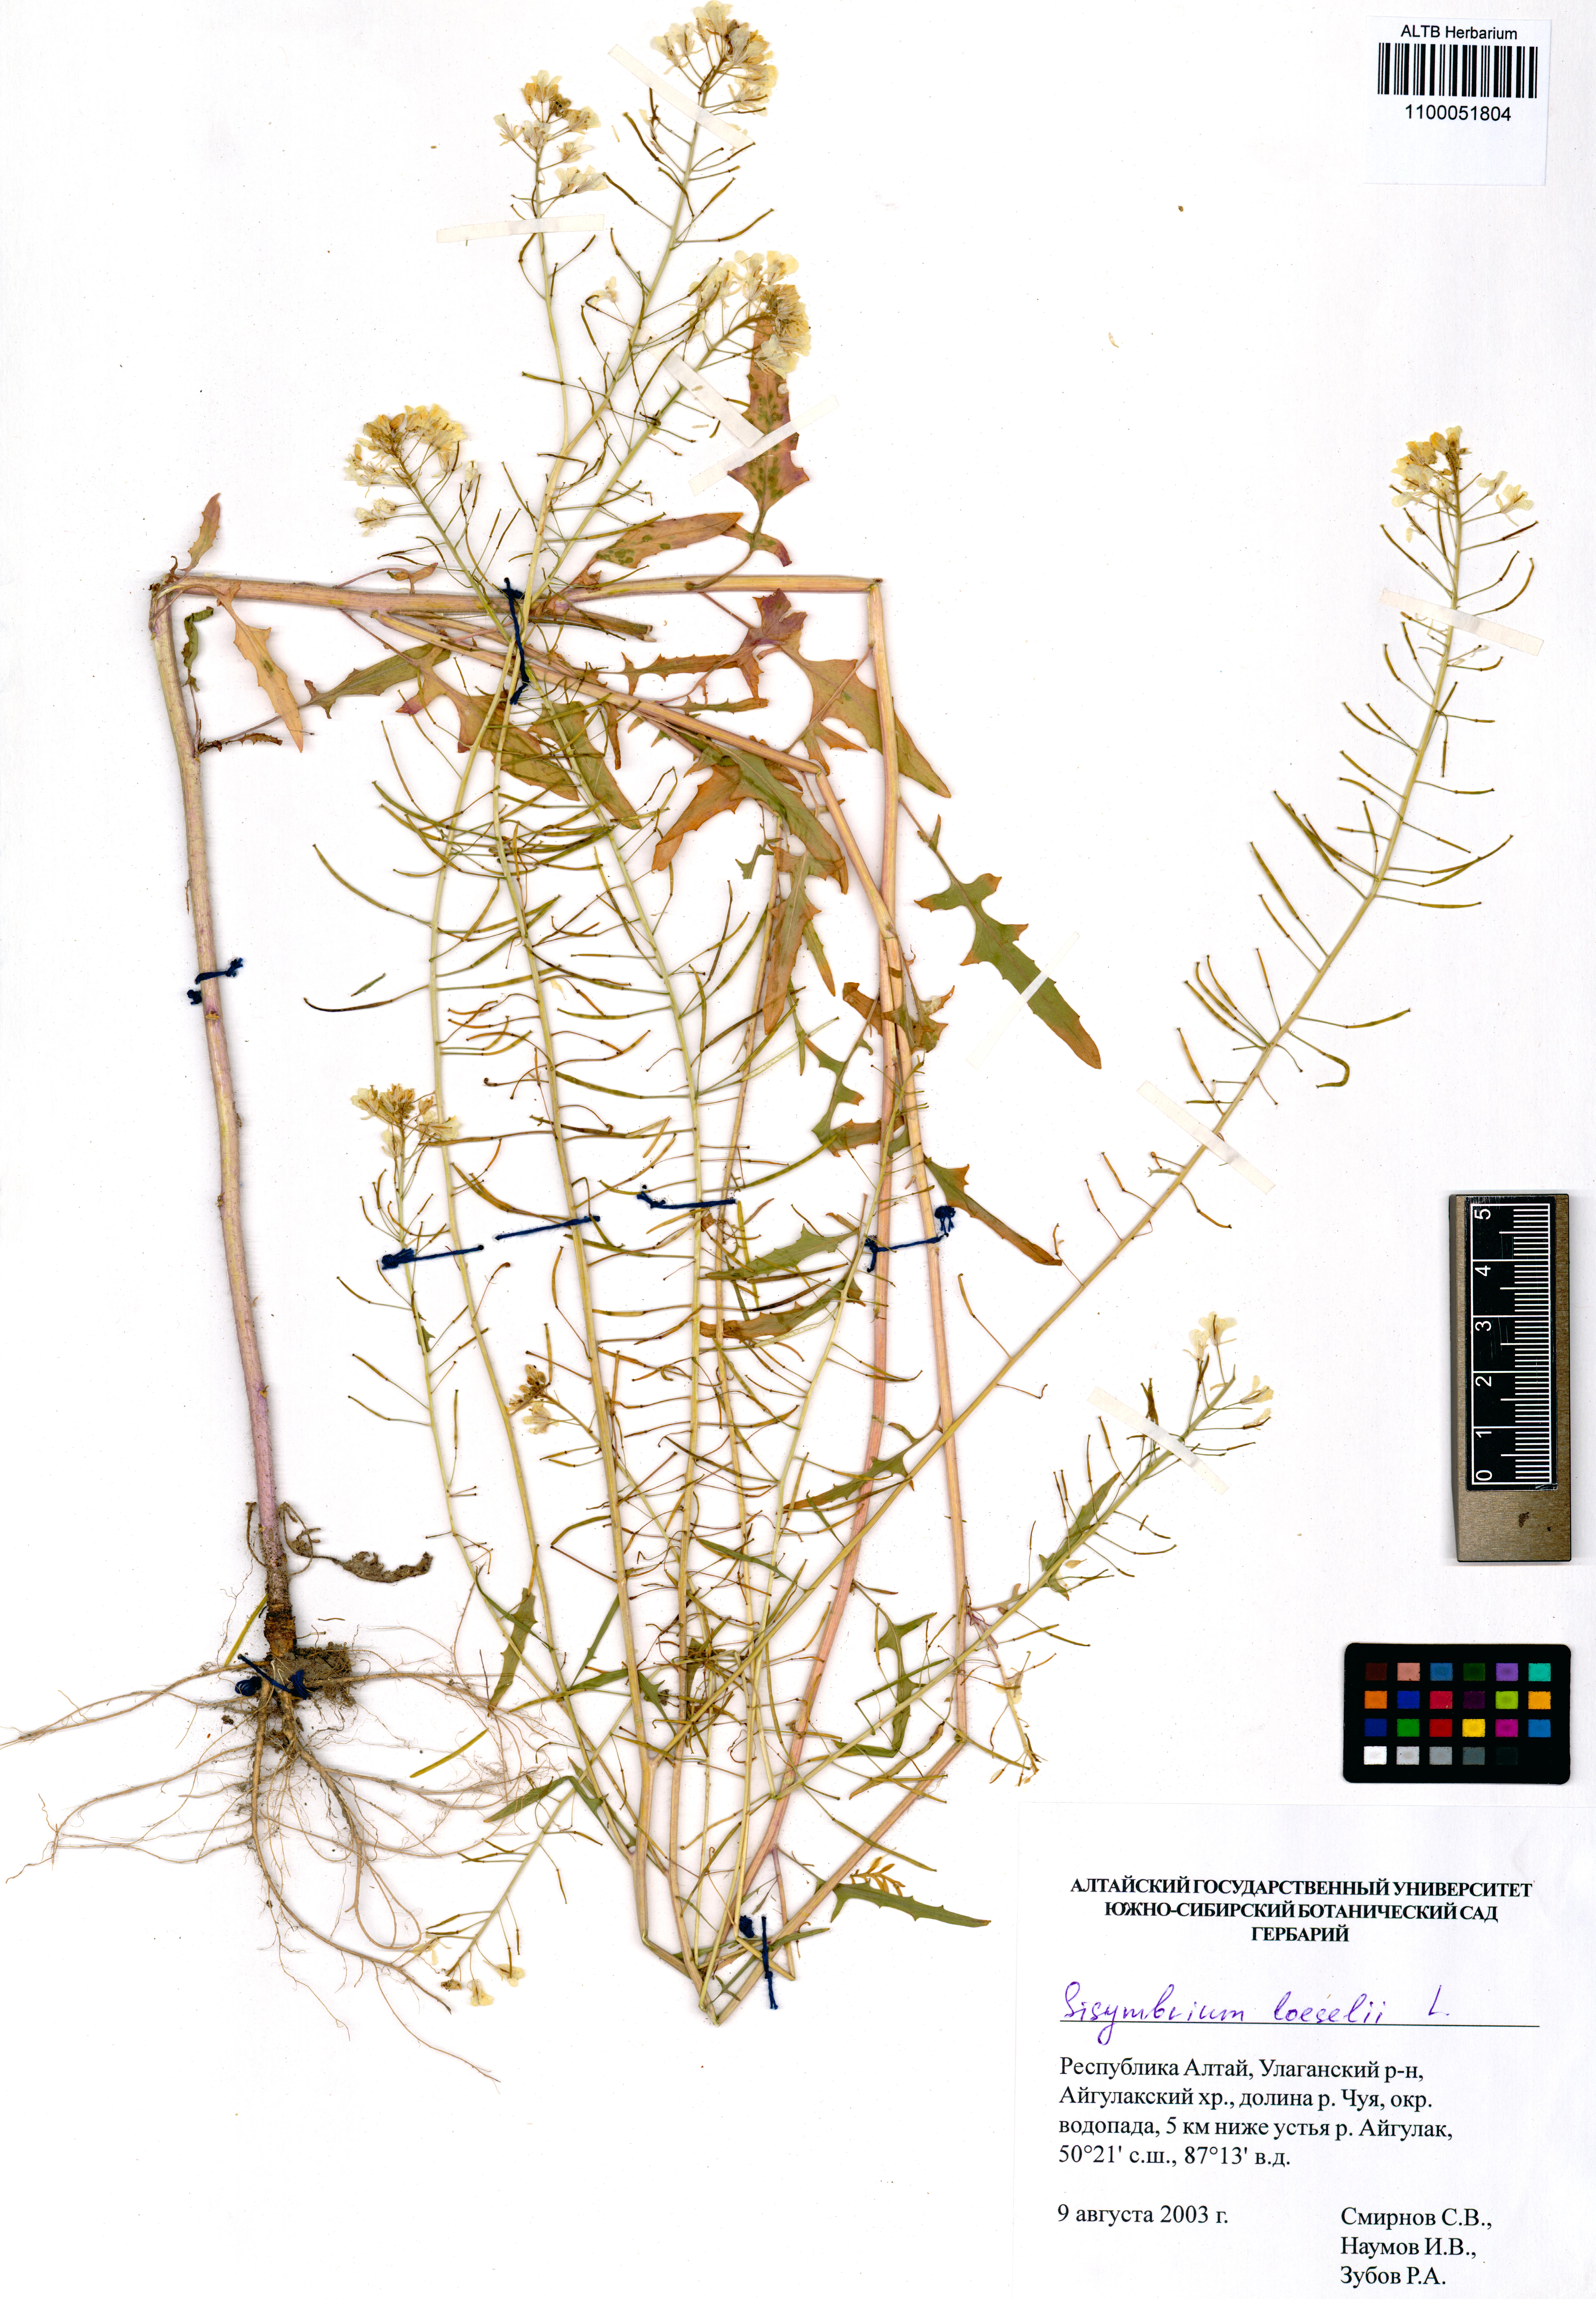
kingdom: Plantae
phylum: Tracheophyta
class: Magnoliopsida
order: Brassicales
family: Brassicaceae
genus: Sisymbrium
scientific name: Sisymbrium loeselii
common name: False london-rocket
